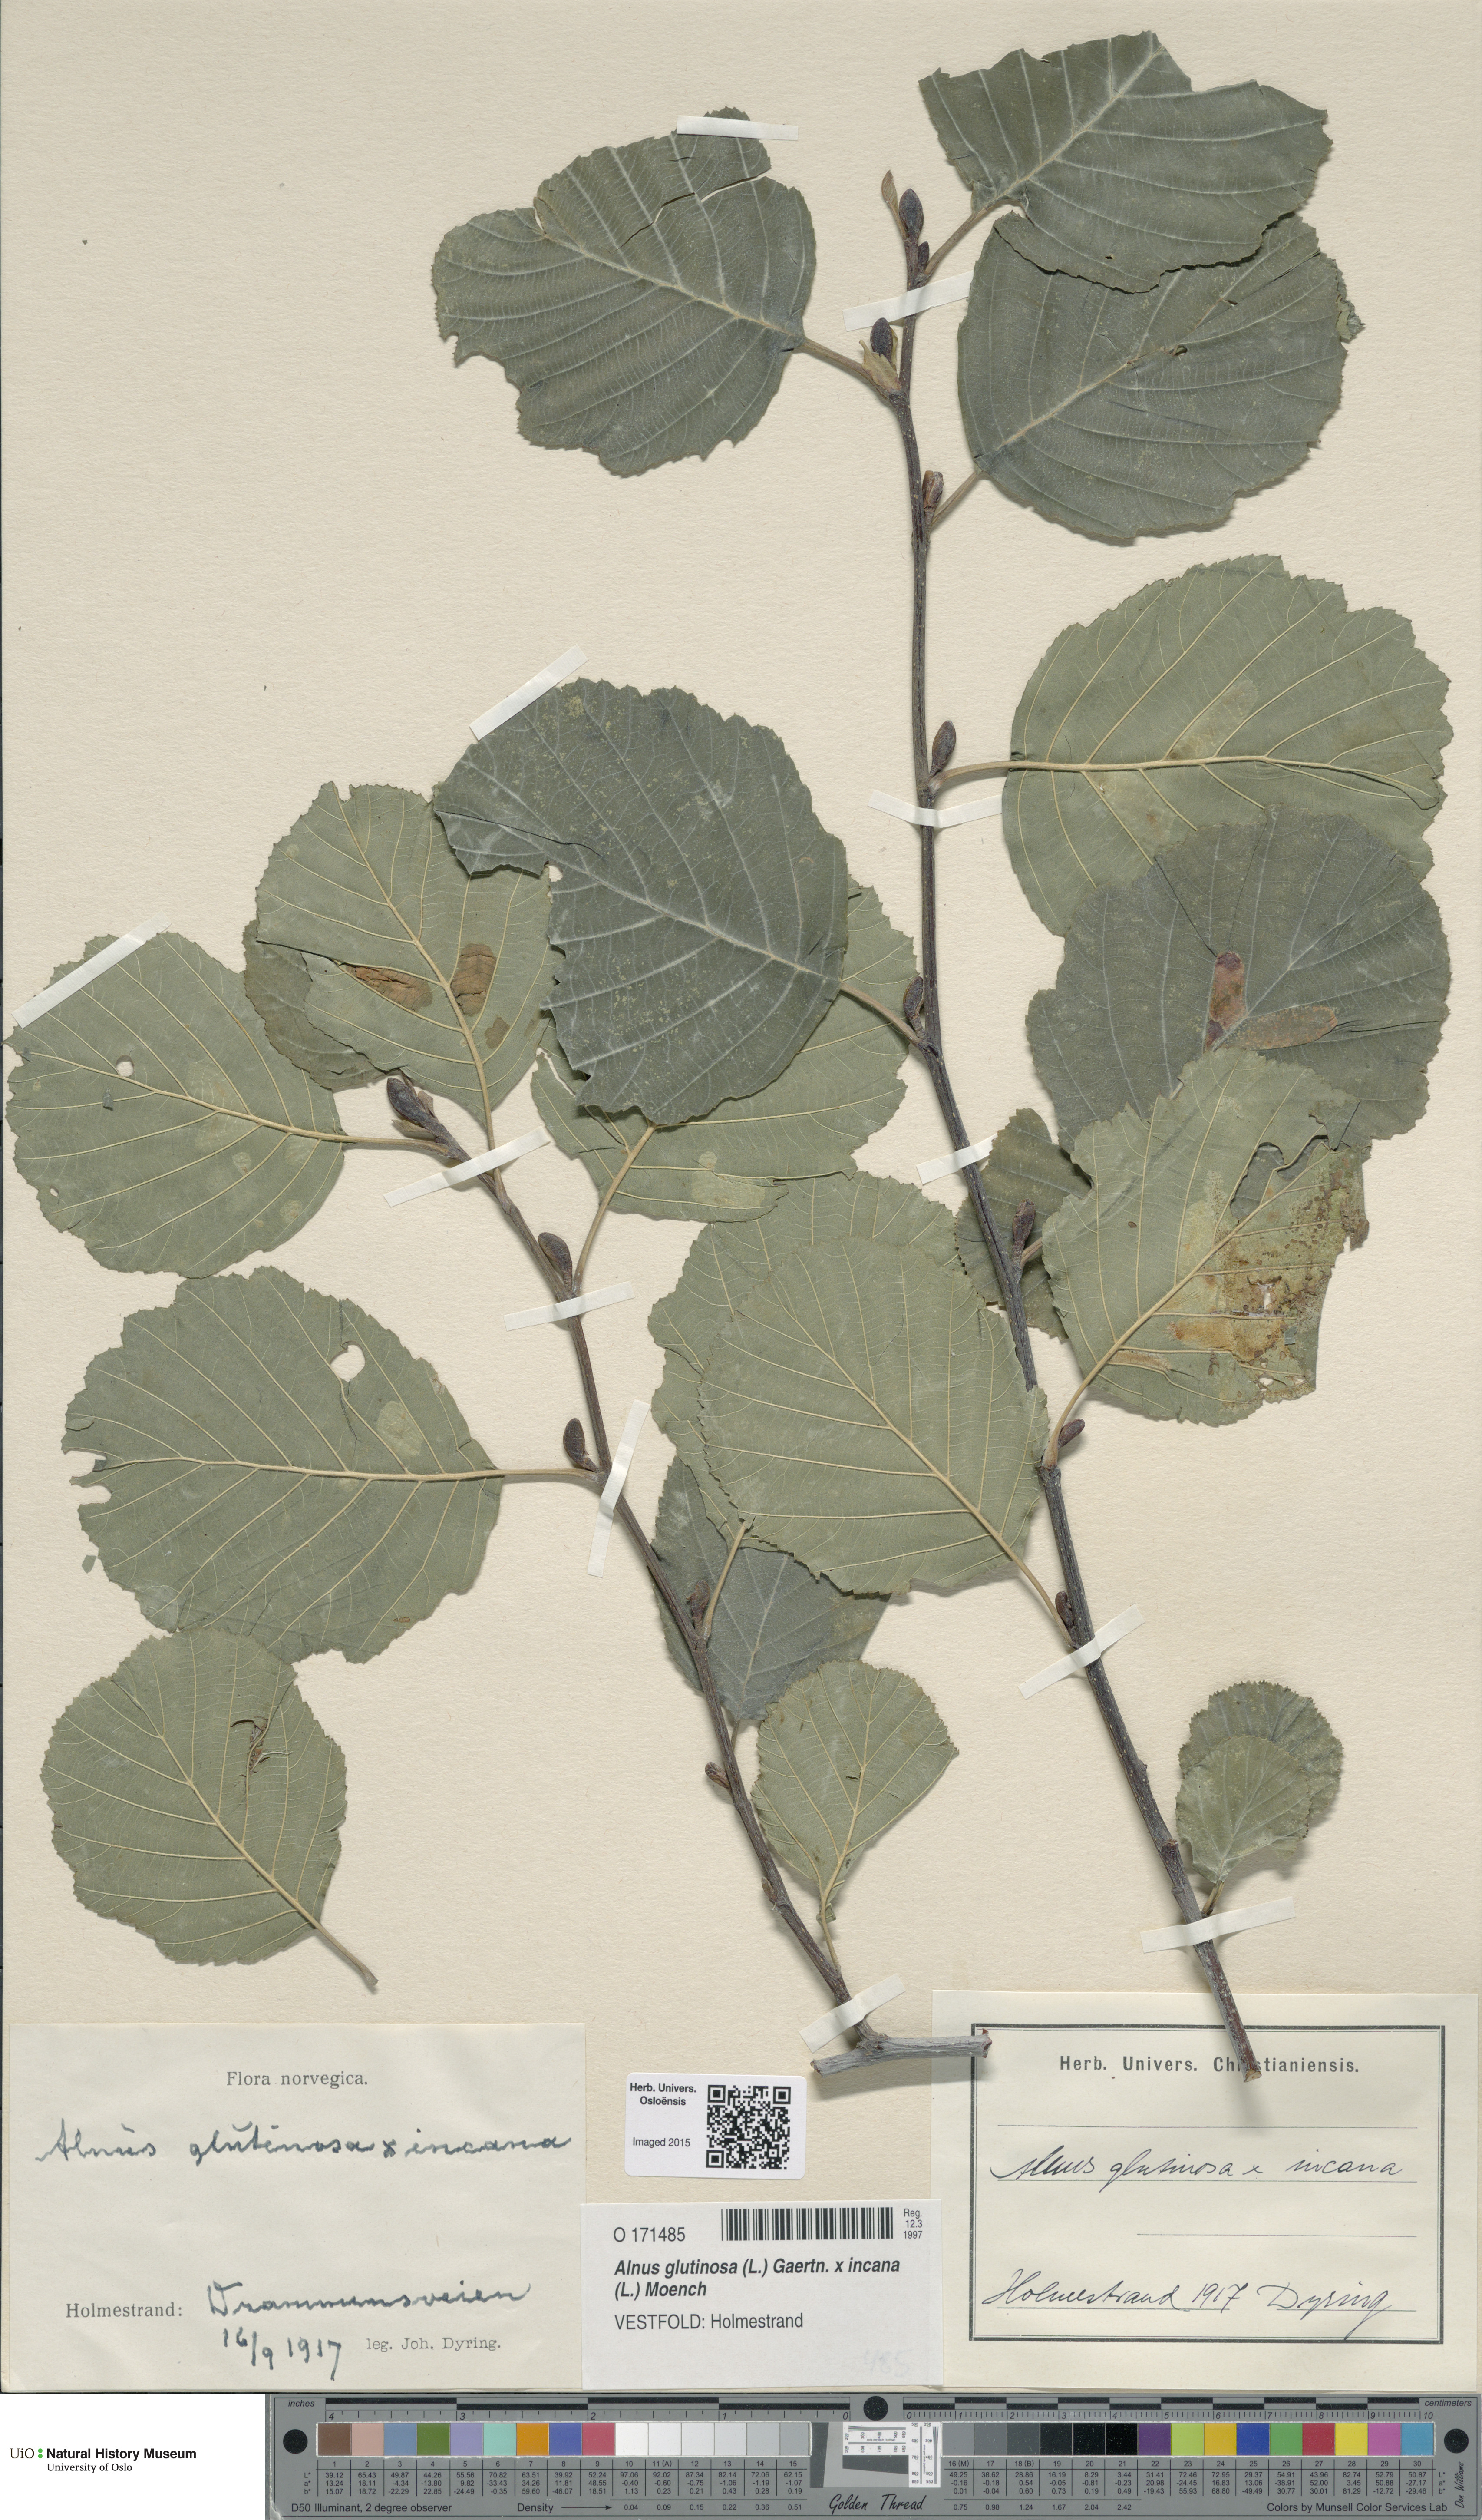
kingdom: Plantae
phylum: Tracheophyta
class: Magnoliopsida
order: Fagales
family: Betulaceae
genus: Alnus
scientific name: Alnus
